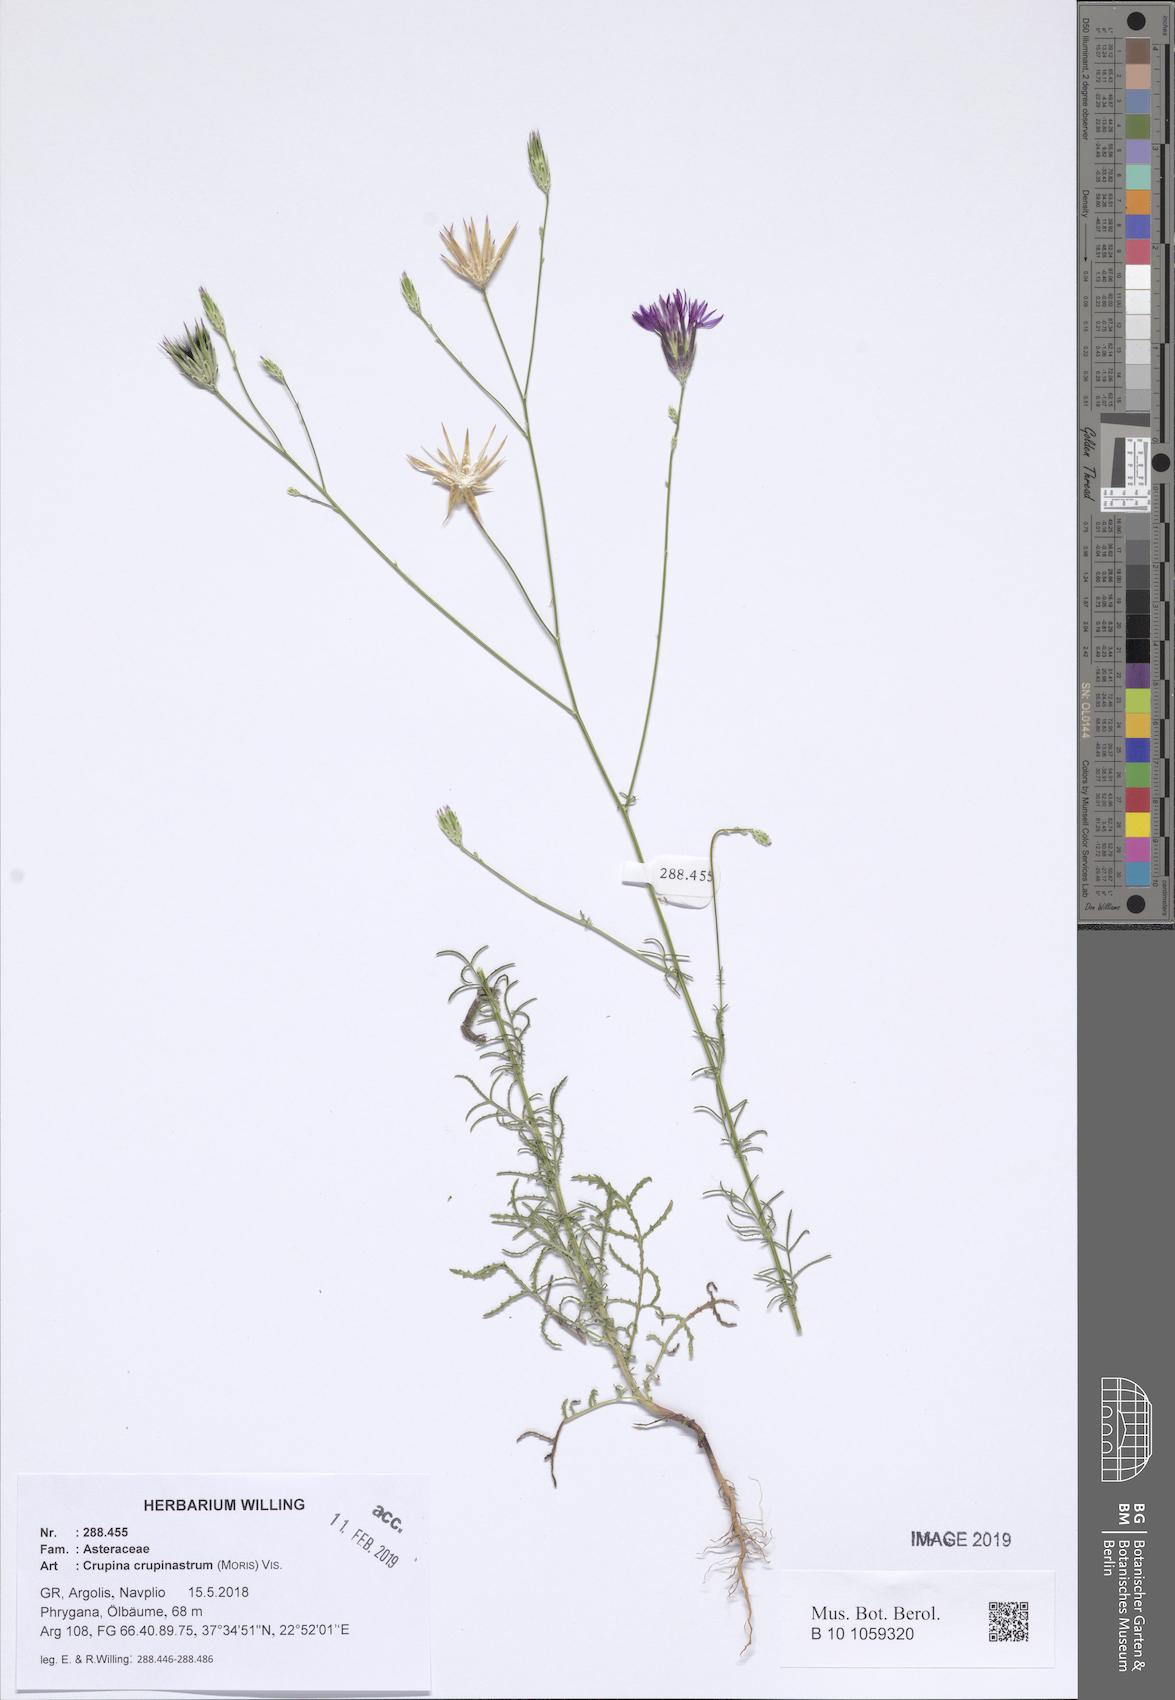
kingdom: Plantae
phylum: Tracheophyta
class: Magnoliopsida
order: Asterales
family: Asteraceae
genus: Crupina
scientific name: Crupina crupinastrum
